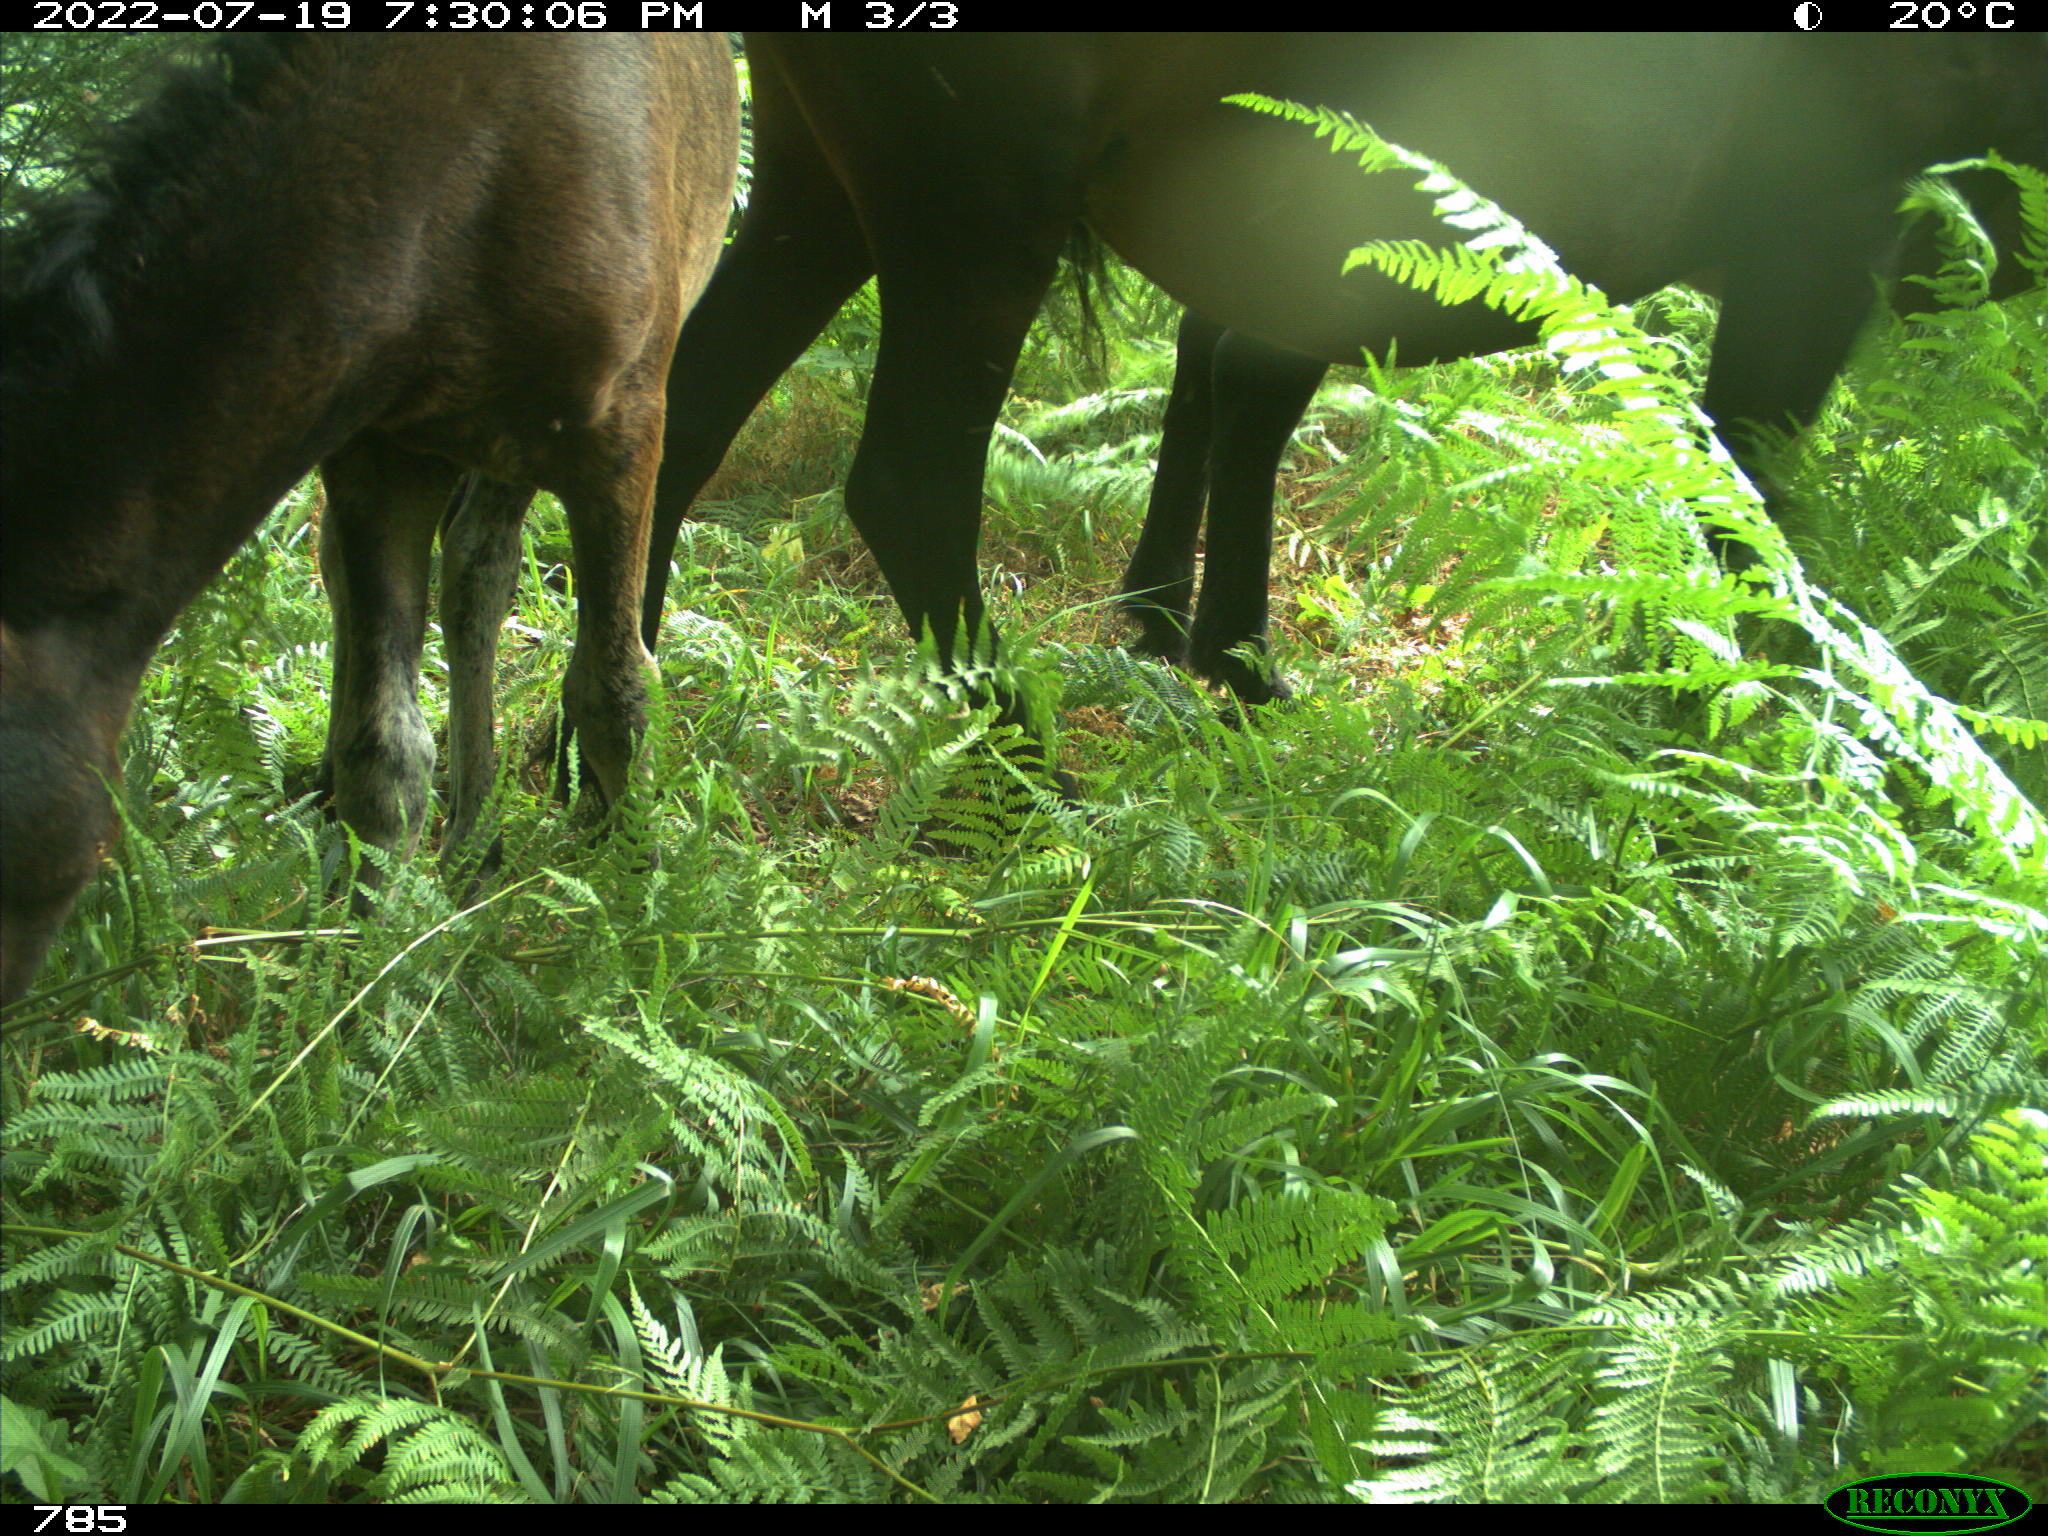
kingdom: Animalia
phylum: Chordata
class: Mammalia
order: Perissodactyla
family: Equidae
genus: Equus
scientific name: Equus caballus
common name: Horse
